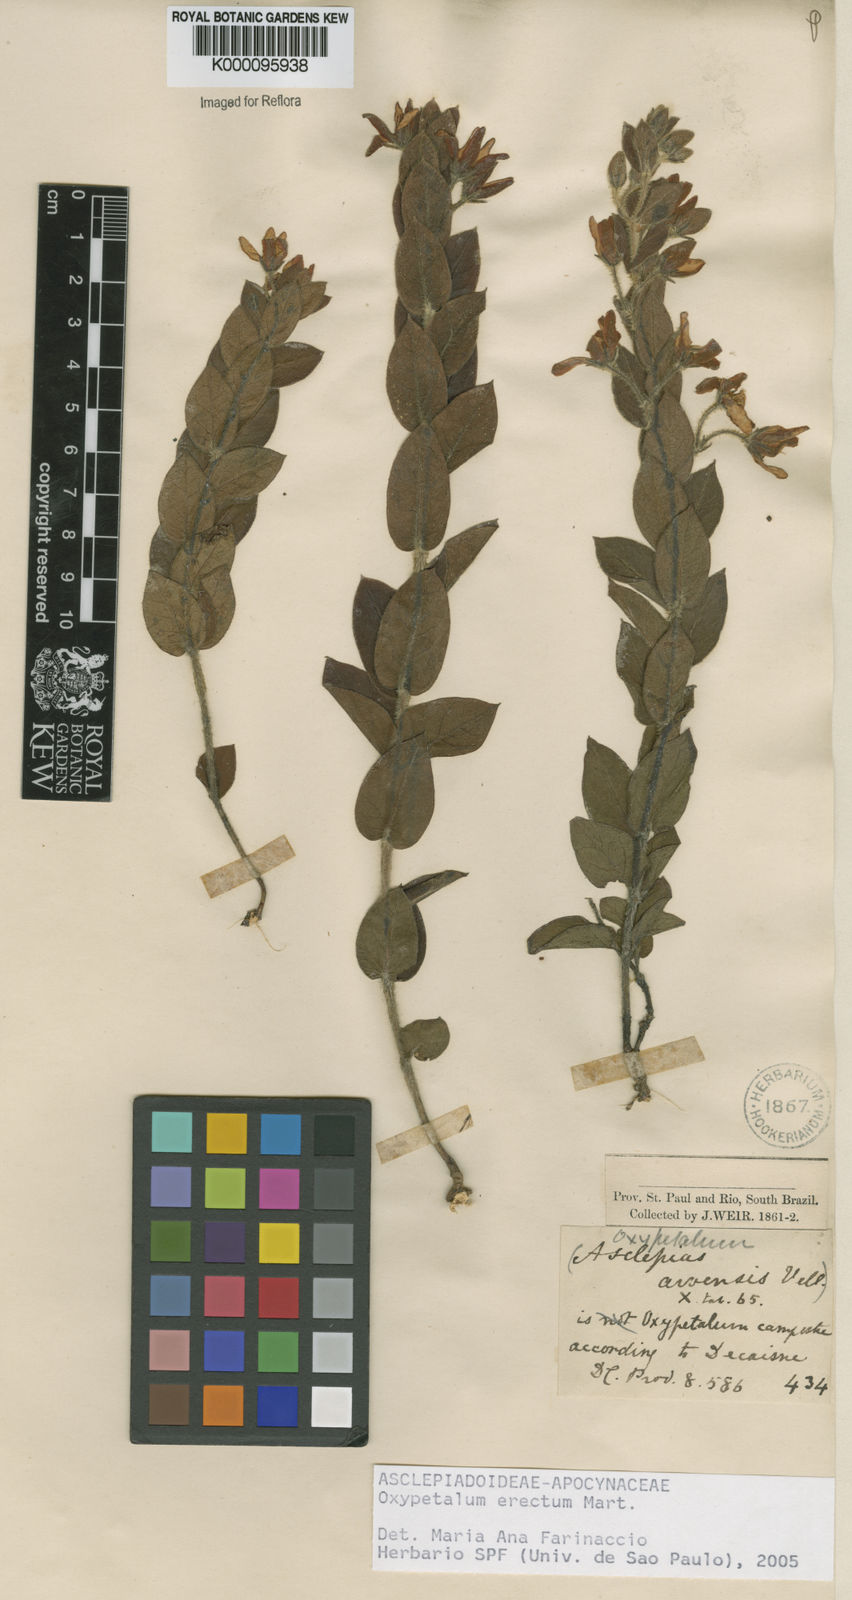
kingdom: Plantae
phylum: Tracheophyta
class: Magnoliopsida
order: Gentianales
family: Apocynaceae
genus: Oxypetalum
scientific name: Oxypetalum erectum
